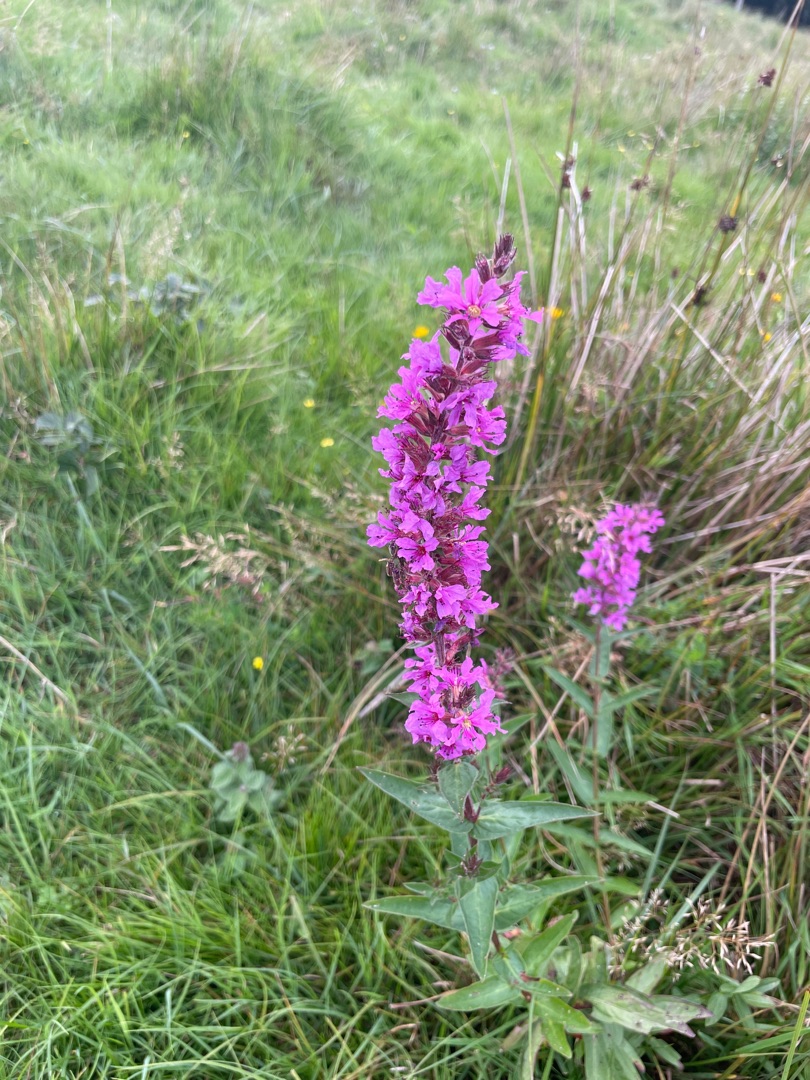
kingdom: Plantae
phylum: Tracheophyta
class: Magnoliopsida
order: Myrtales
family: Lythraceae
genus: Lythrum
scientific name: Lythrum salicaria
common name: Kattehale
